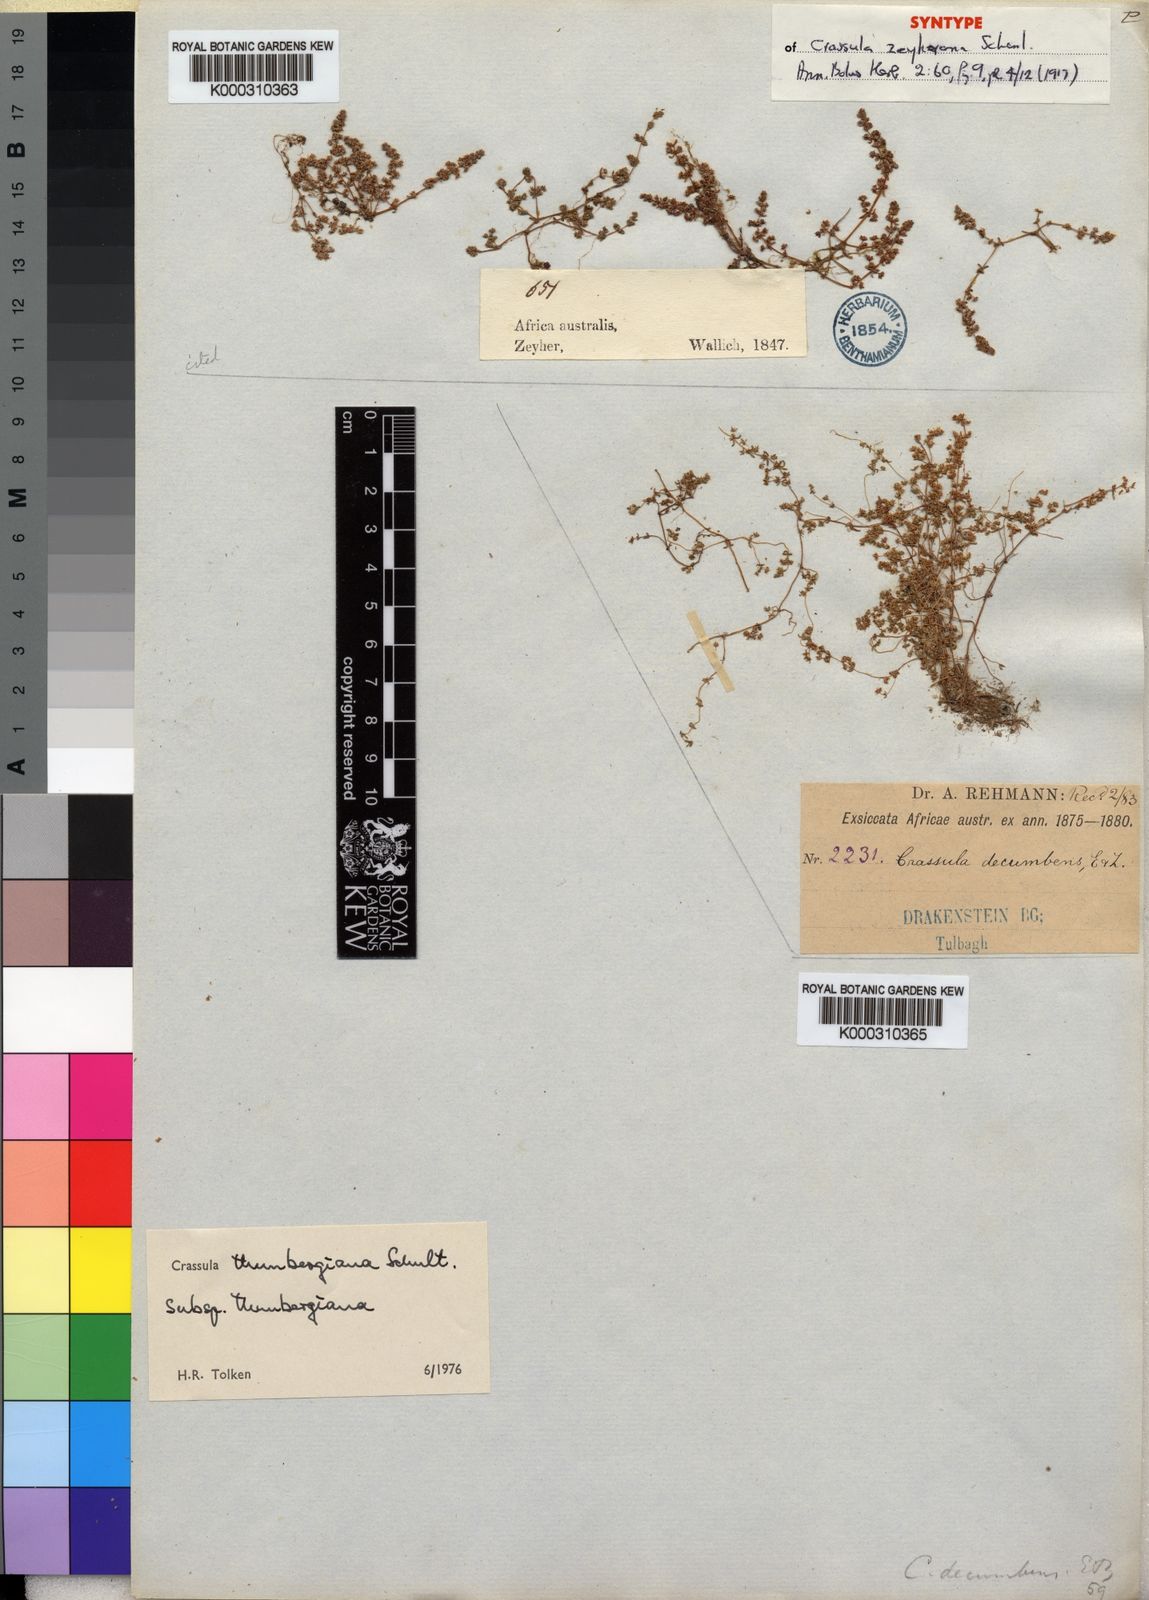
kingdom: Plantae
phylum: Tracheophyta
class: Magnoliopsida
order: Saxifragales
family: Crassulaceae
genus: Crassula
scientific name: Crassula thunbergiana
